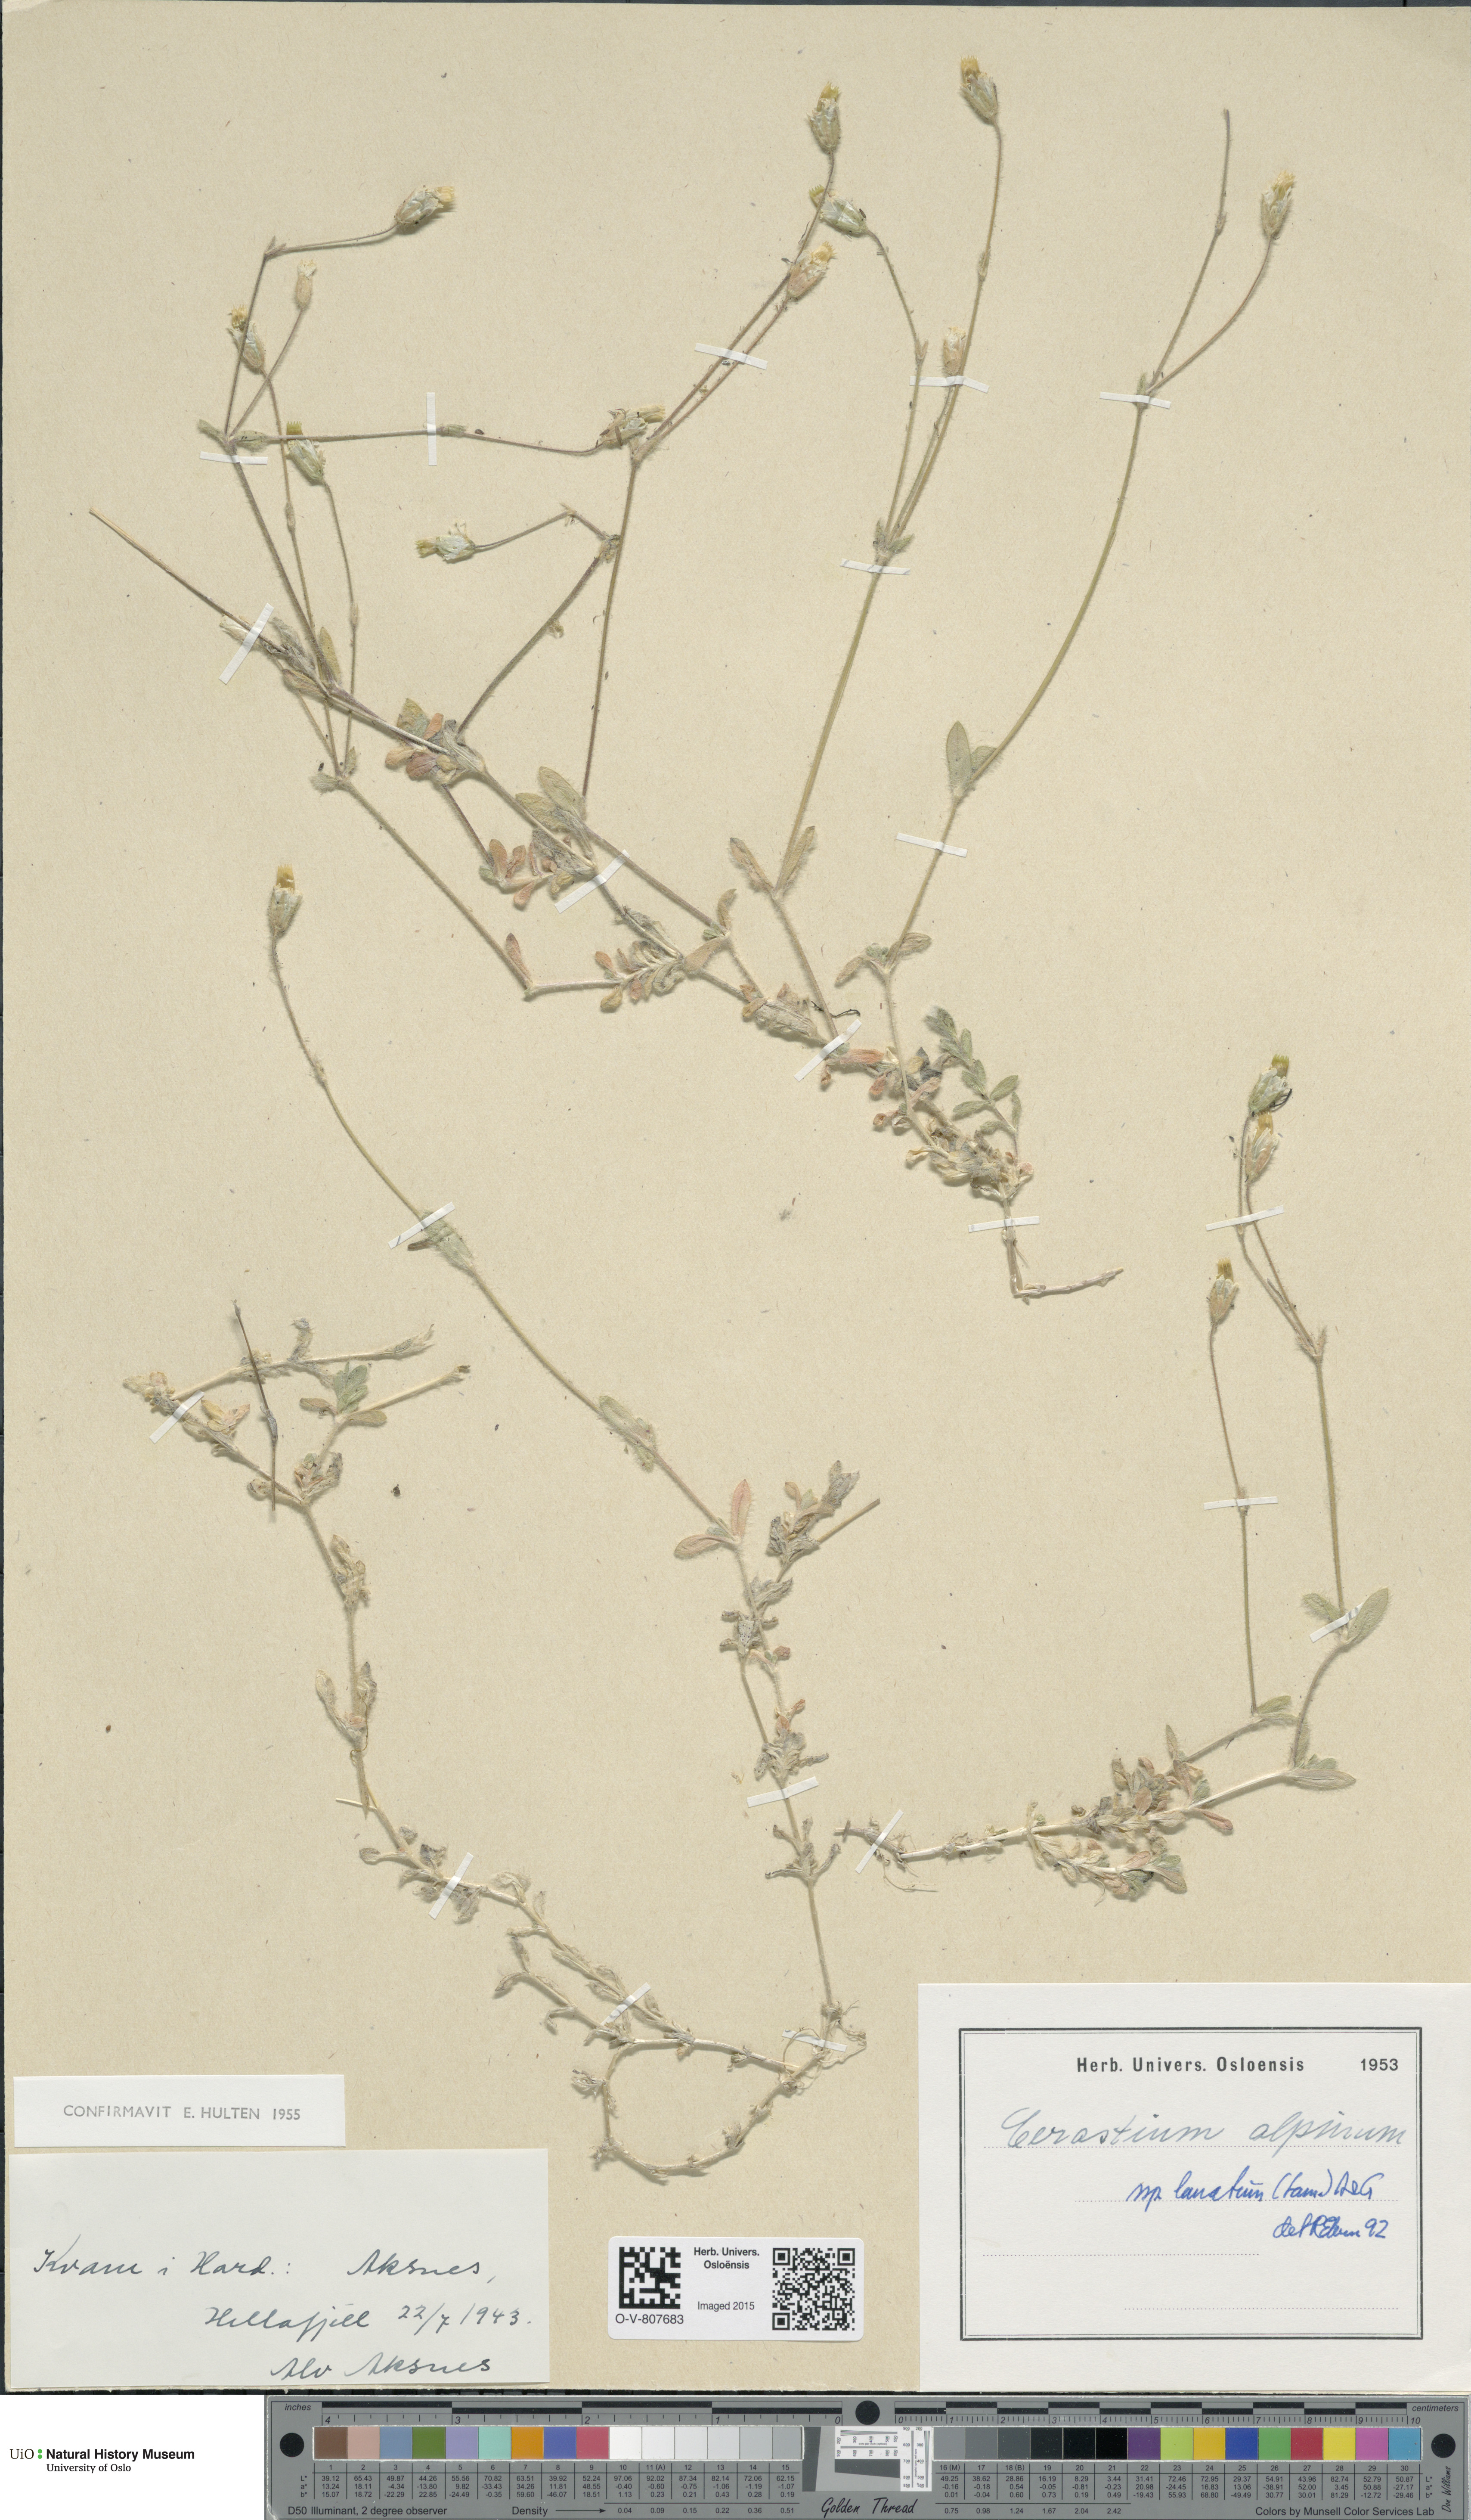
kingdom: Plantae
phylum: Tracheophyta
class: Magnoliopsida
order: Caryophyllales
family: Caryophyllaceae
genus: Cerastium
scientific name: Cerastium alpinum
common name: Alpine mouse-ear
